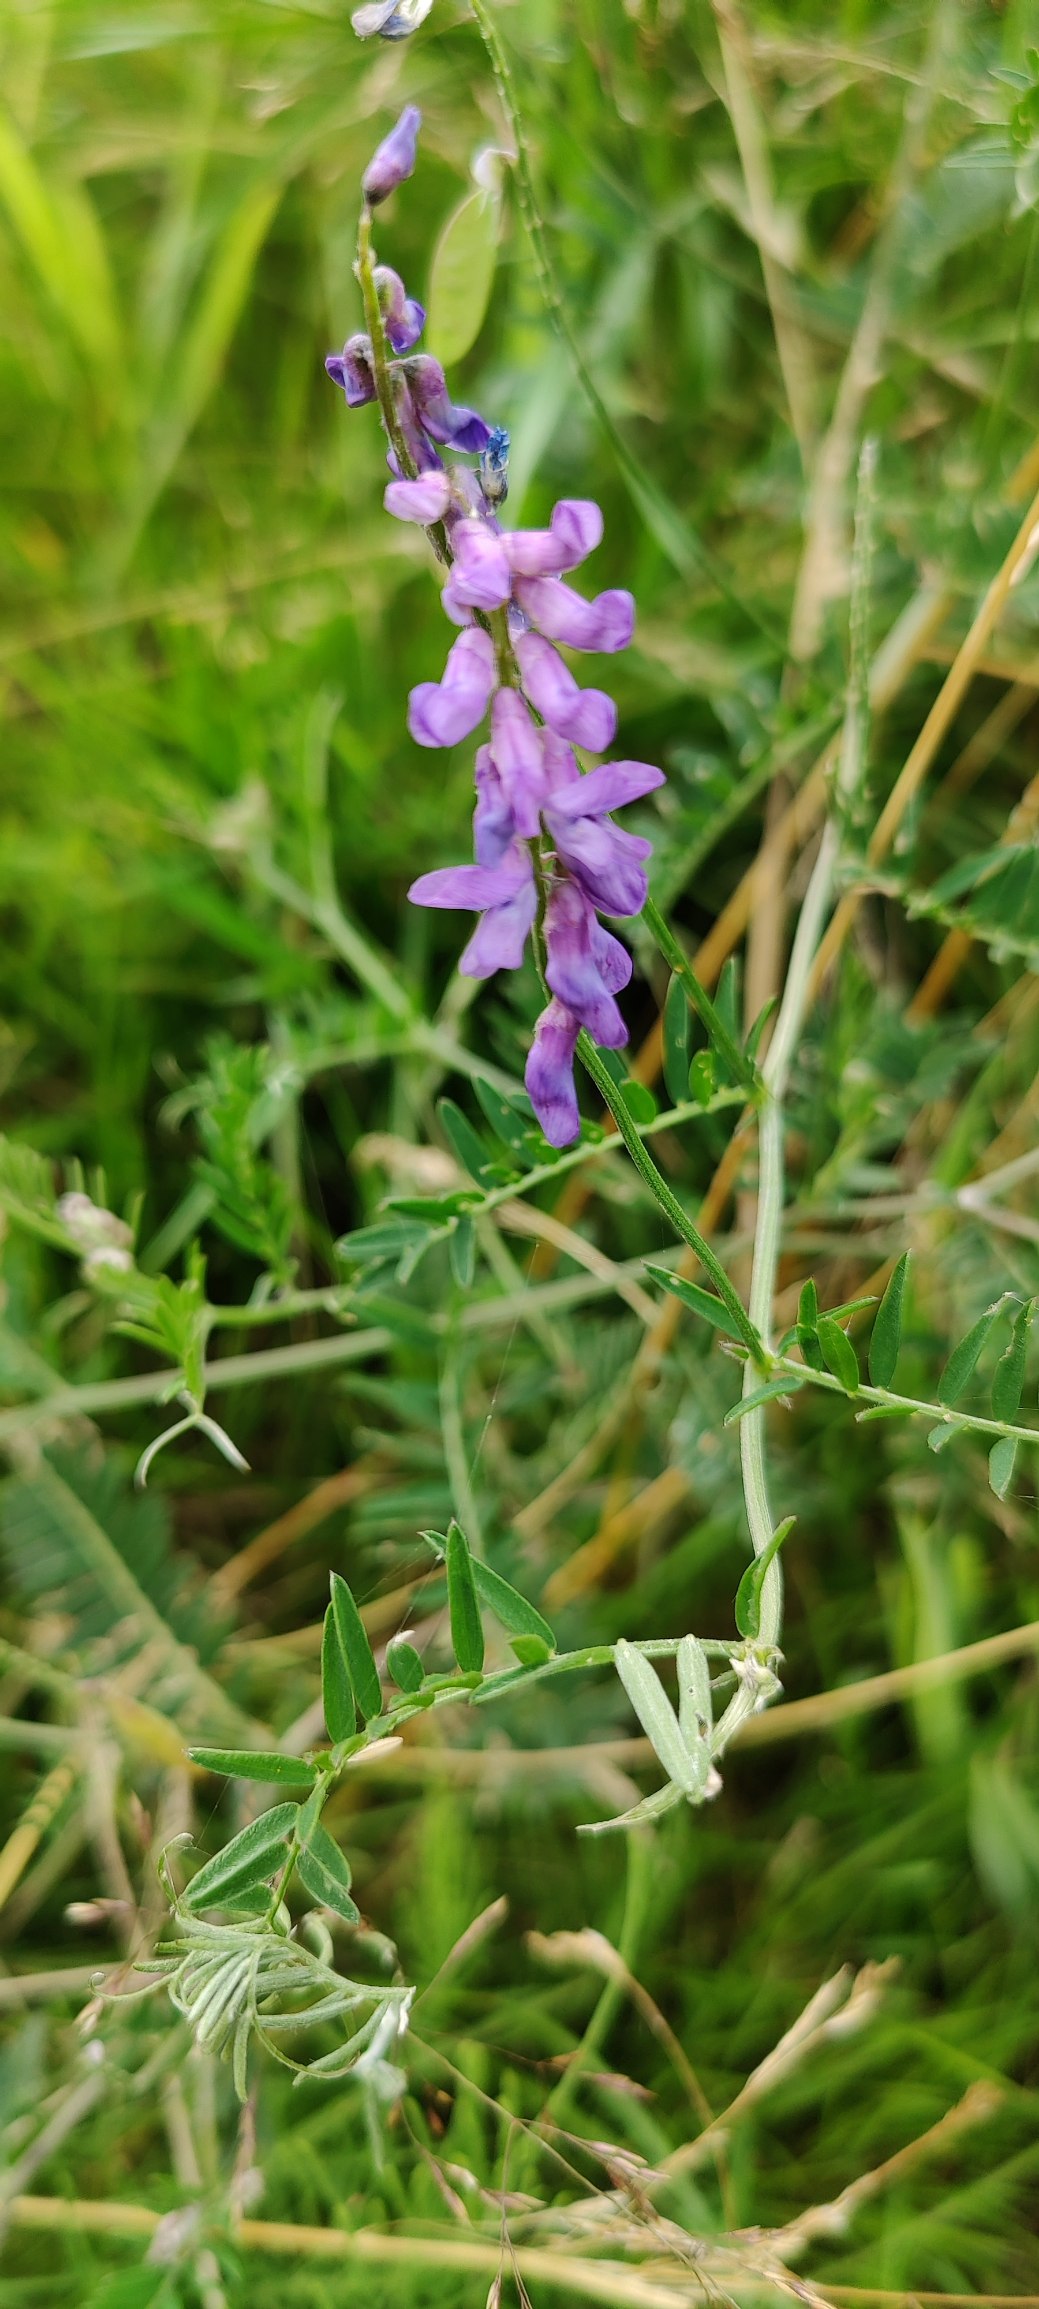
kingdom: Plantae
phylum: Tracheophyta
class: Magnoliopsida
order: Fabales
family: Fabaceae
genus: Vicia
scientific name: Vicia cracca
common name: Muse-vikke
